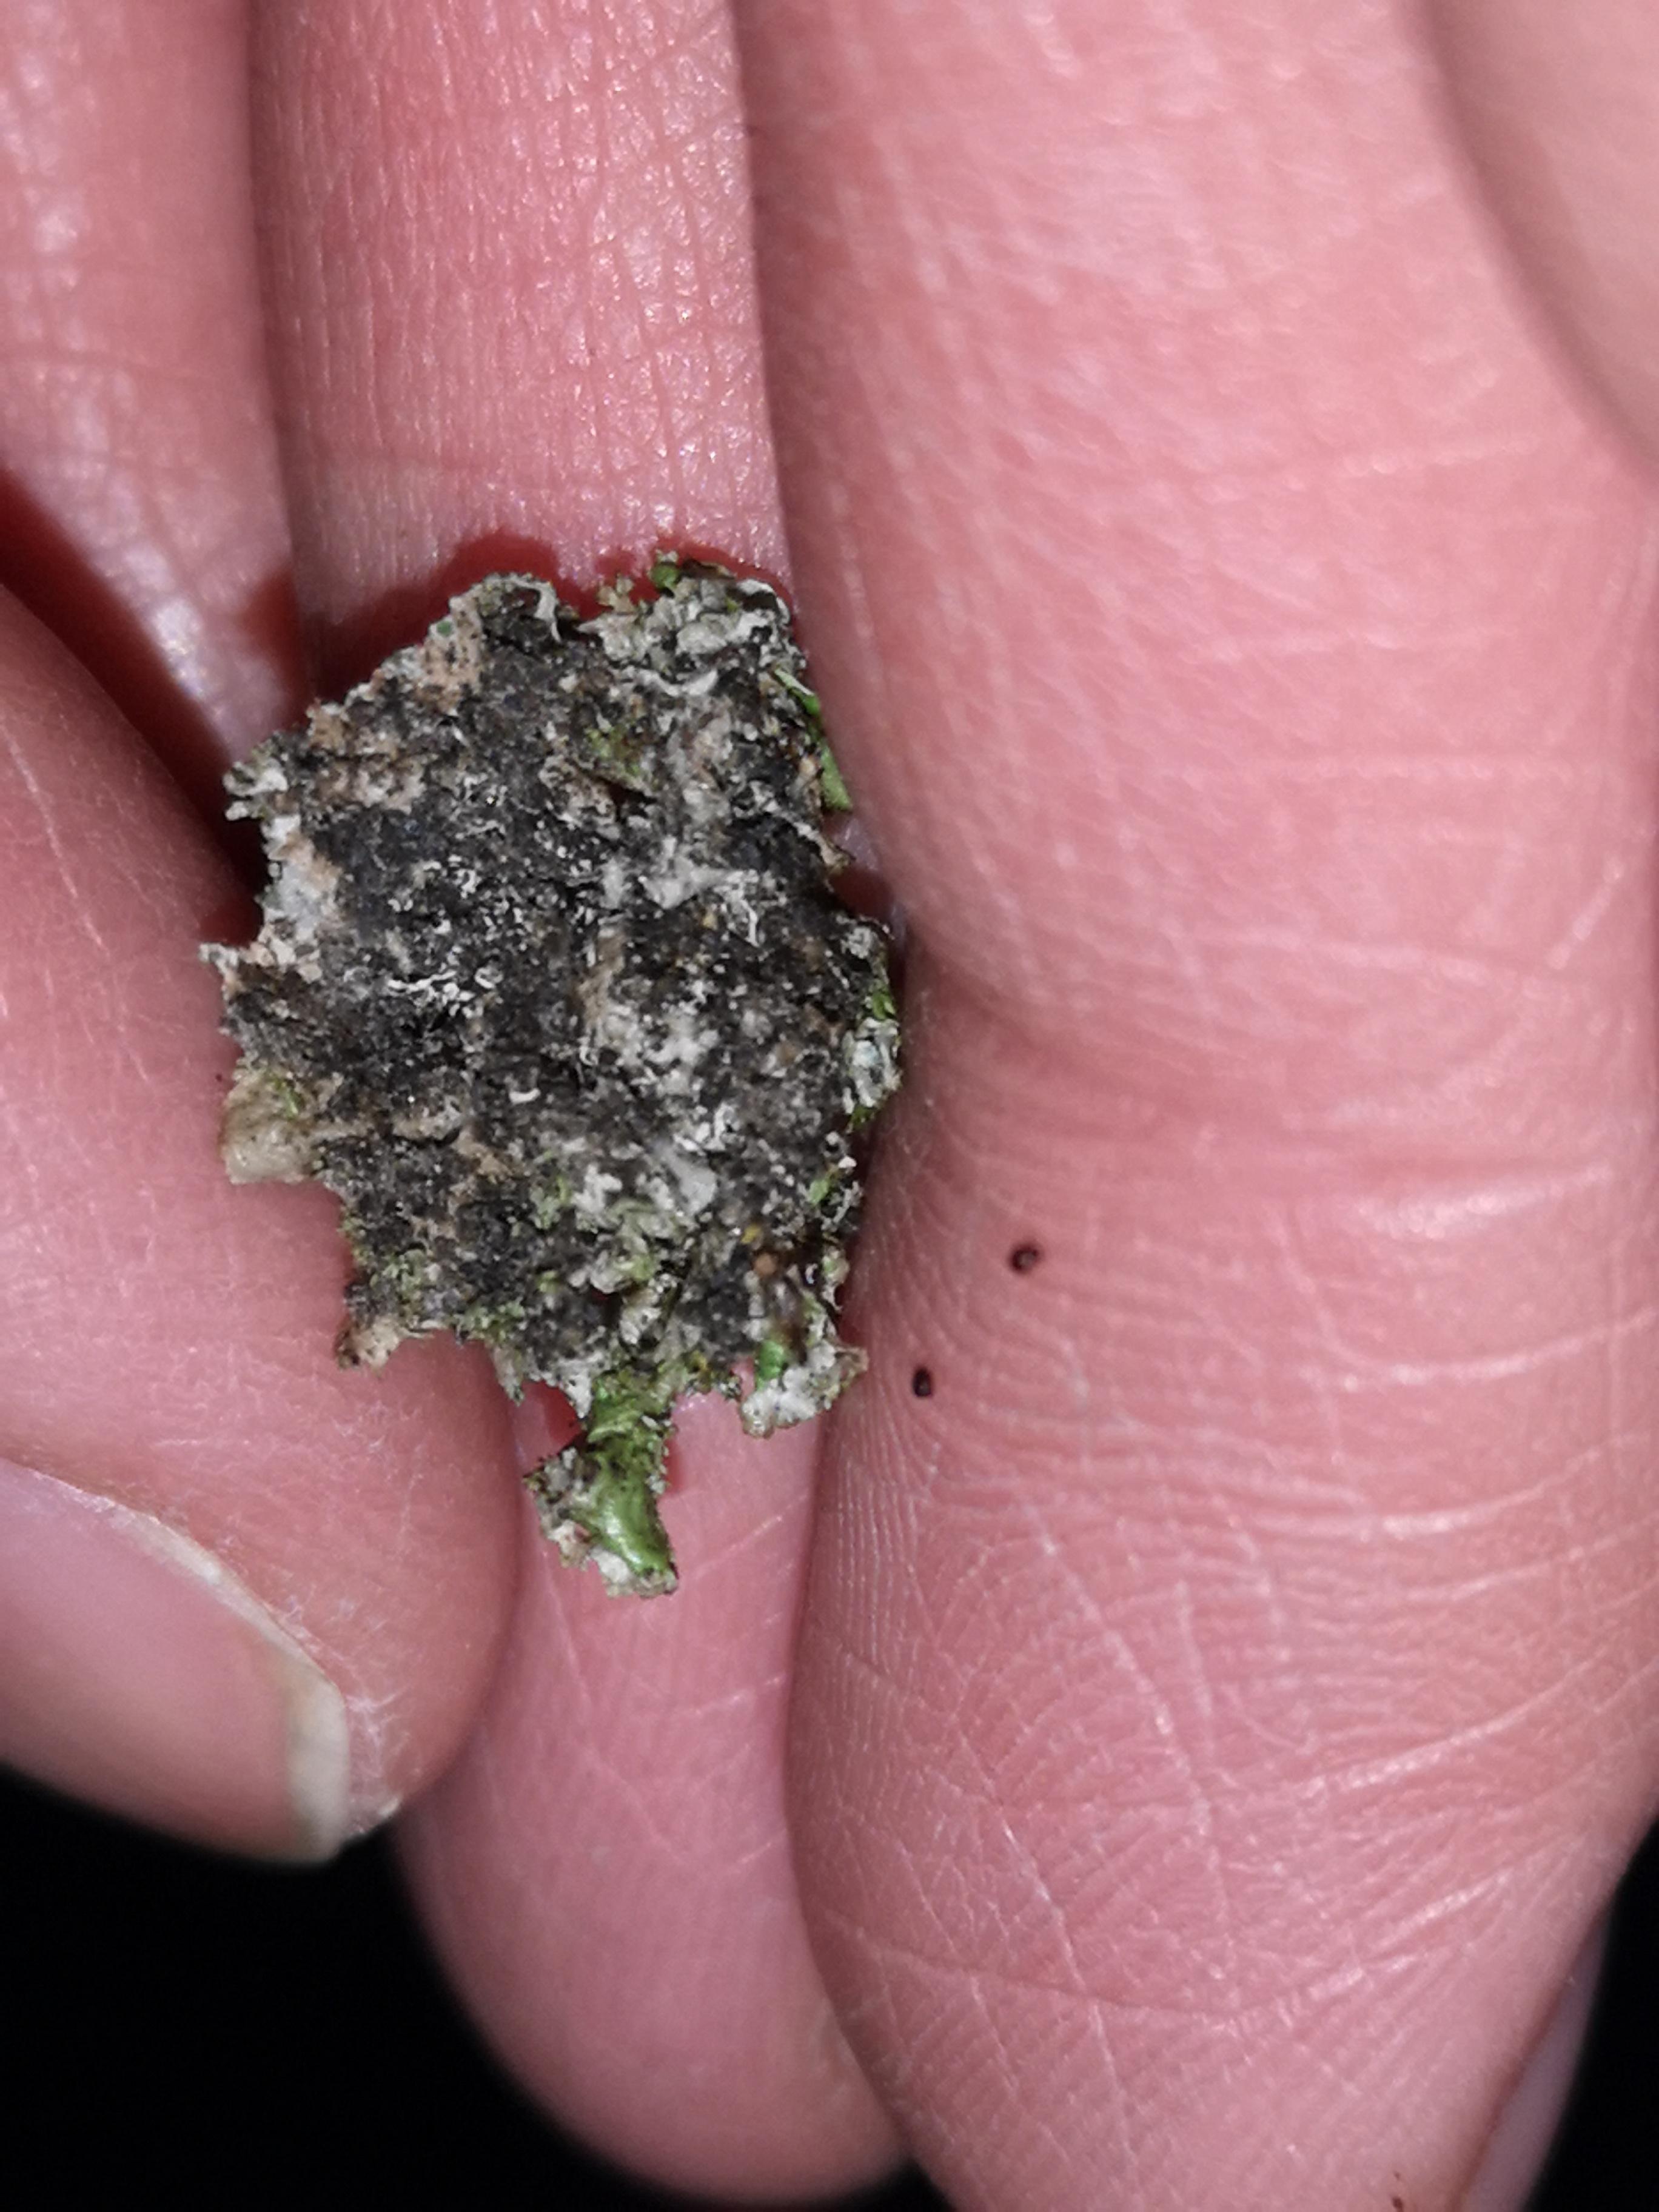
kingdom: Fungi
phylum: Ascomycota
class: Lecanoromycetes
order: Lecanorales
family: Parmeliaceae
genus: Melanelixia
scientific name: Melanelixia
